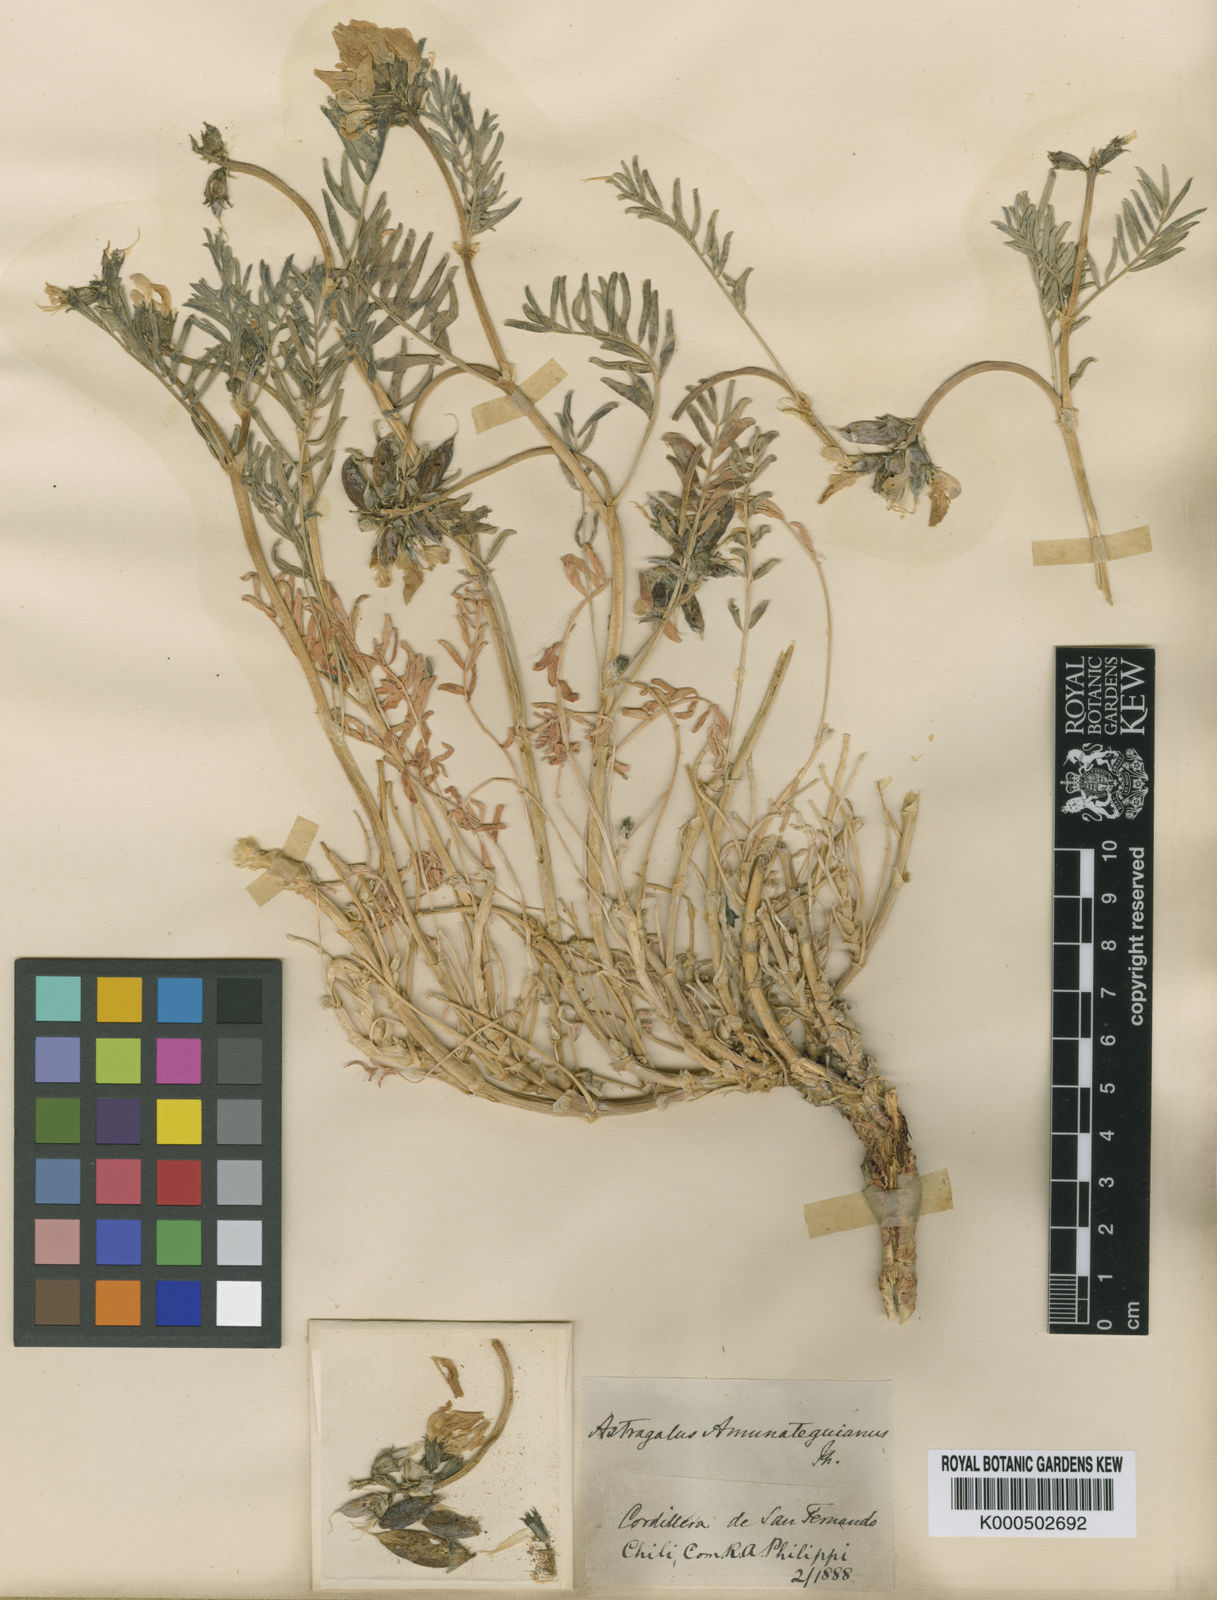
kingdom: Plantae
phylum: Tracheophyta
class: Magnoliopsida
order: Fabales
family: Fabaceae
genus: Astragalus
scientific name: Astragalus
